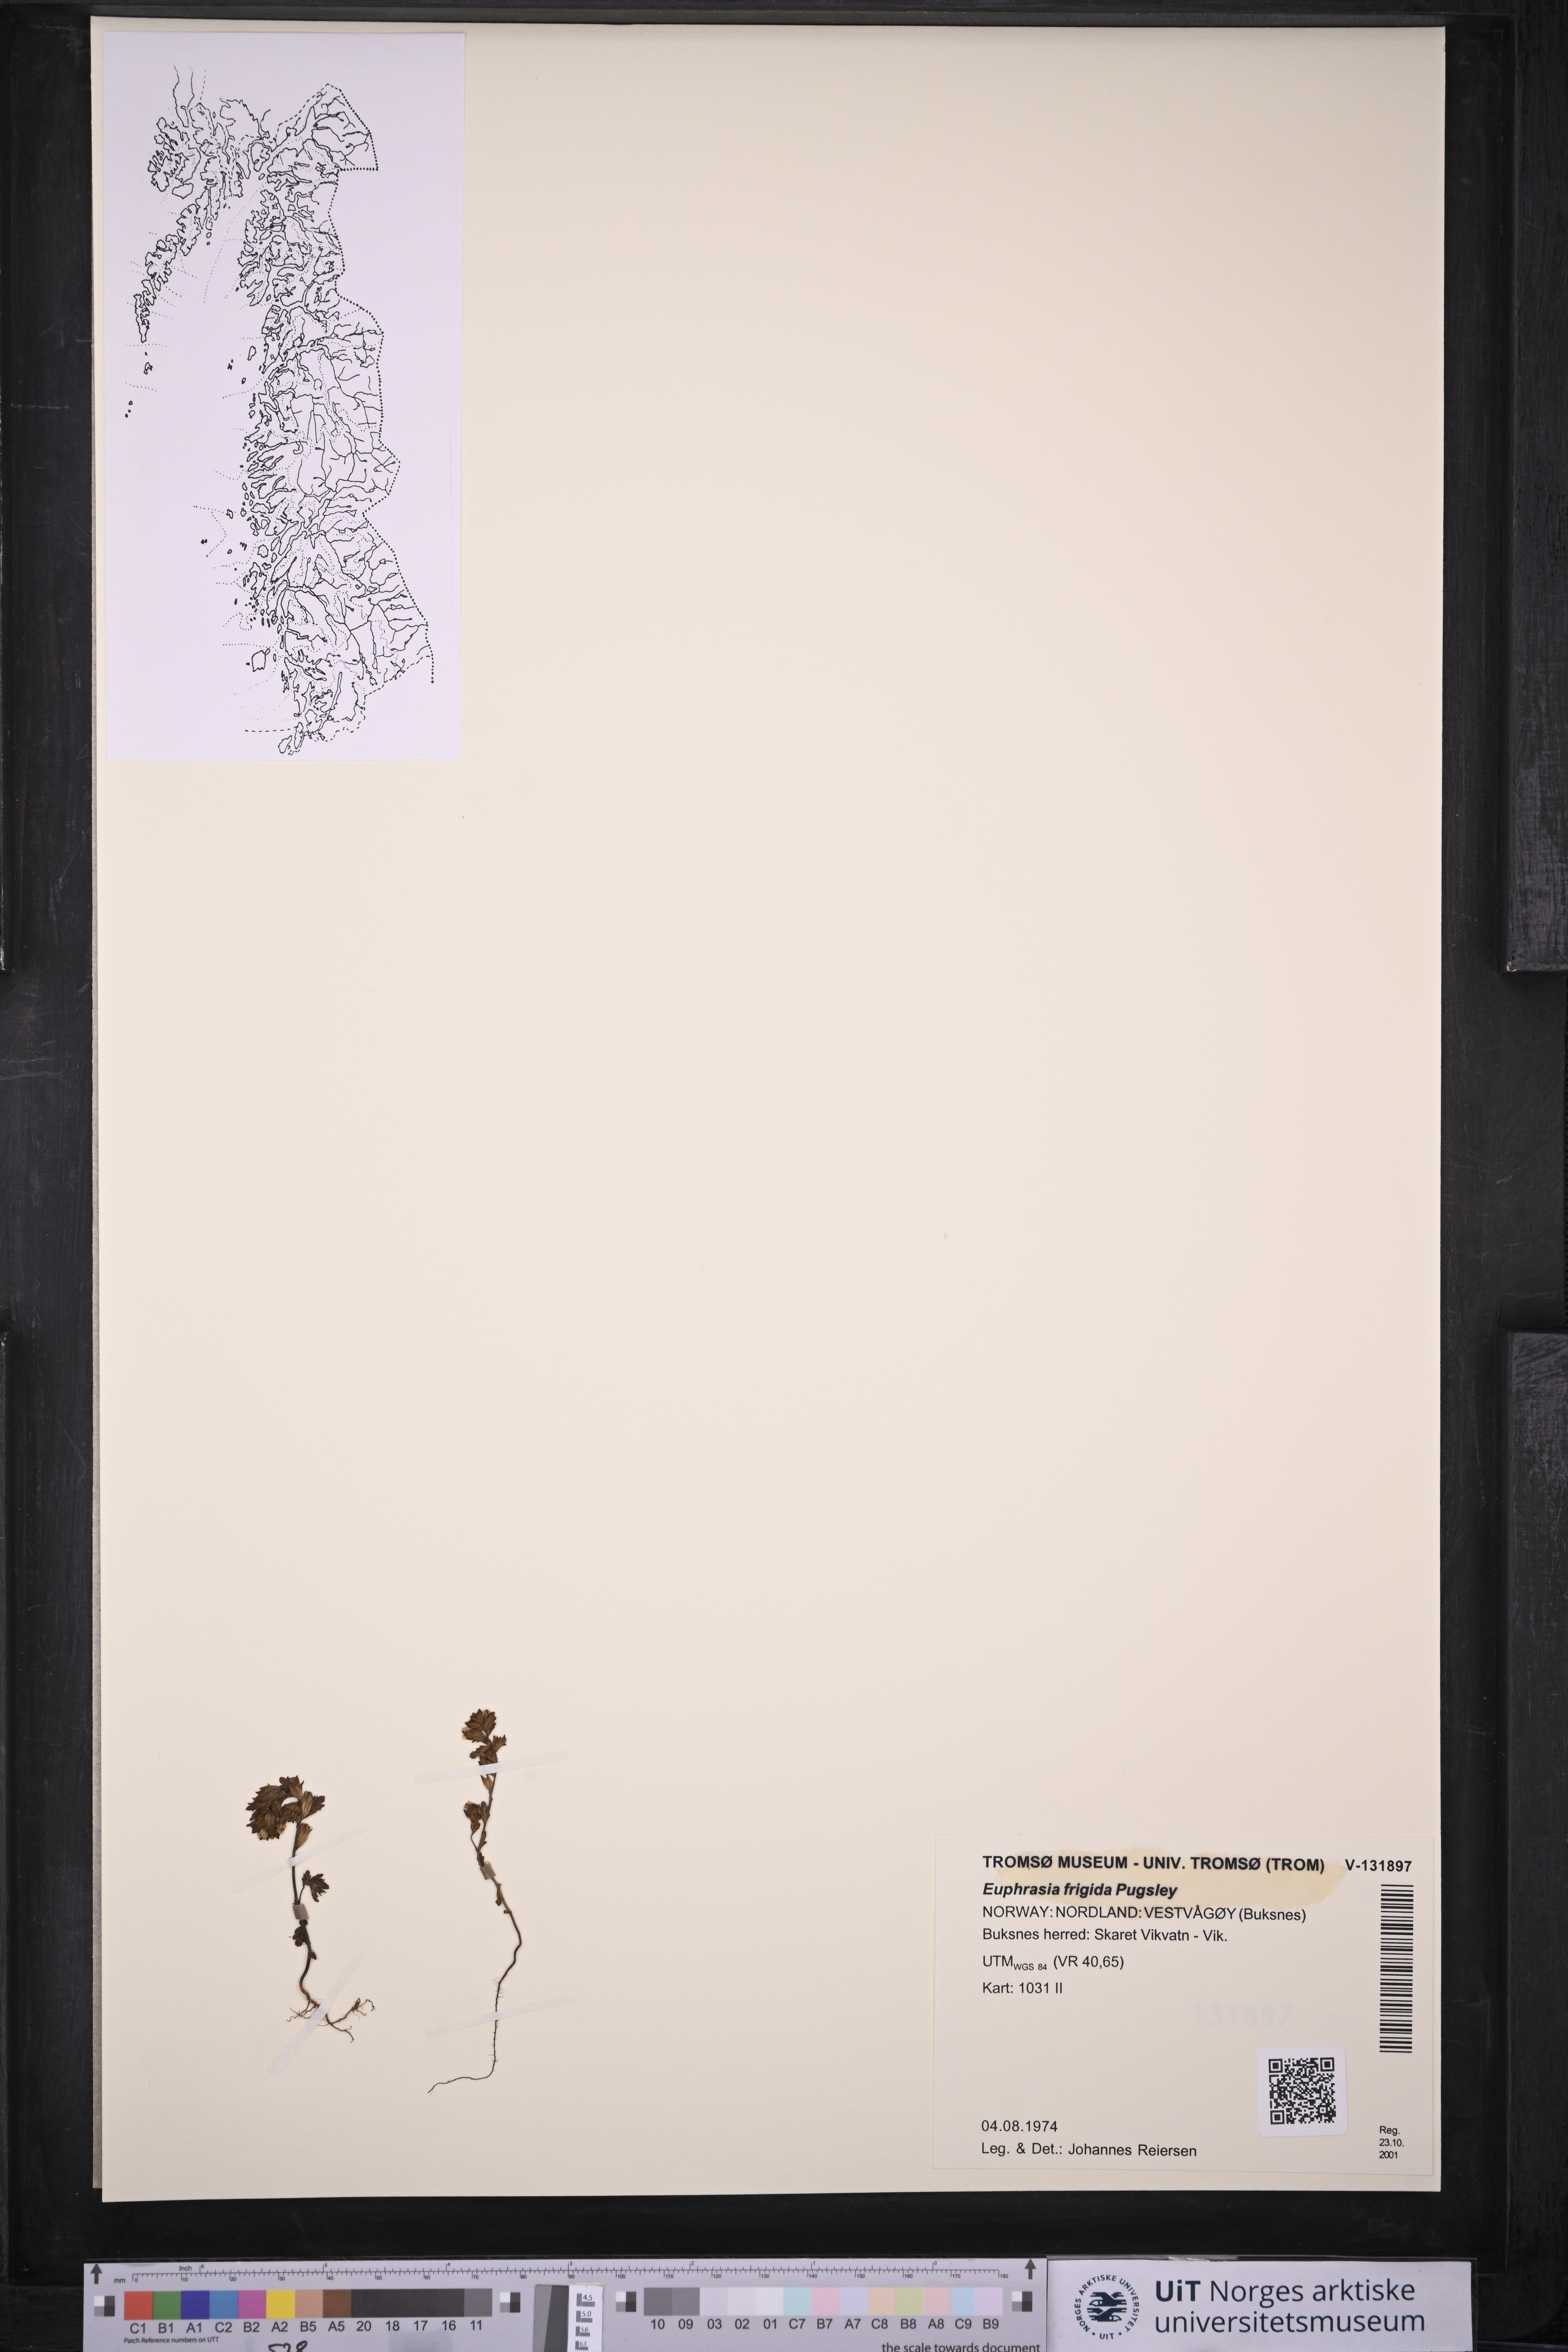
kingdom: Plantae
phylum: Tracheophyta
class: Magnoliopsida
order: Lamiales
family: Orobanchaceae
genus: Euphrasia
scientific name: Euphrasia frigida
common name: An eyebright
